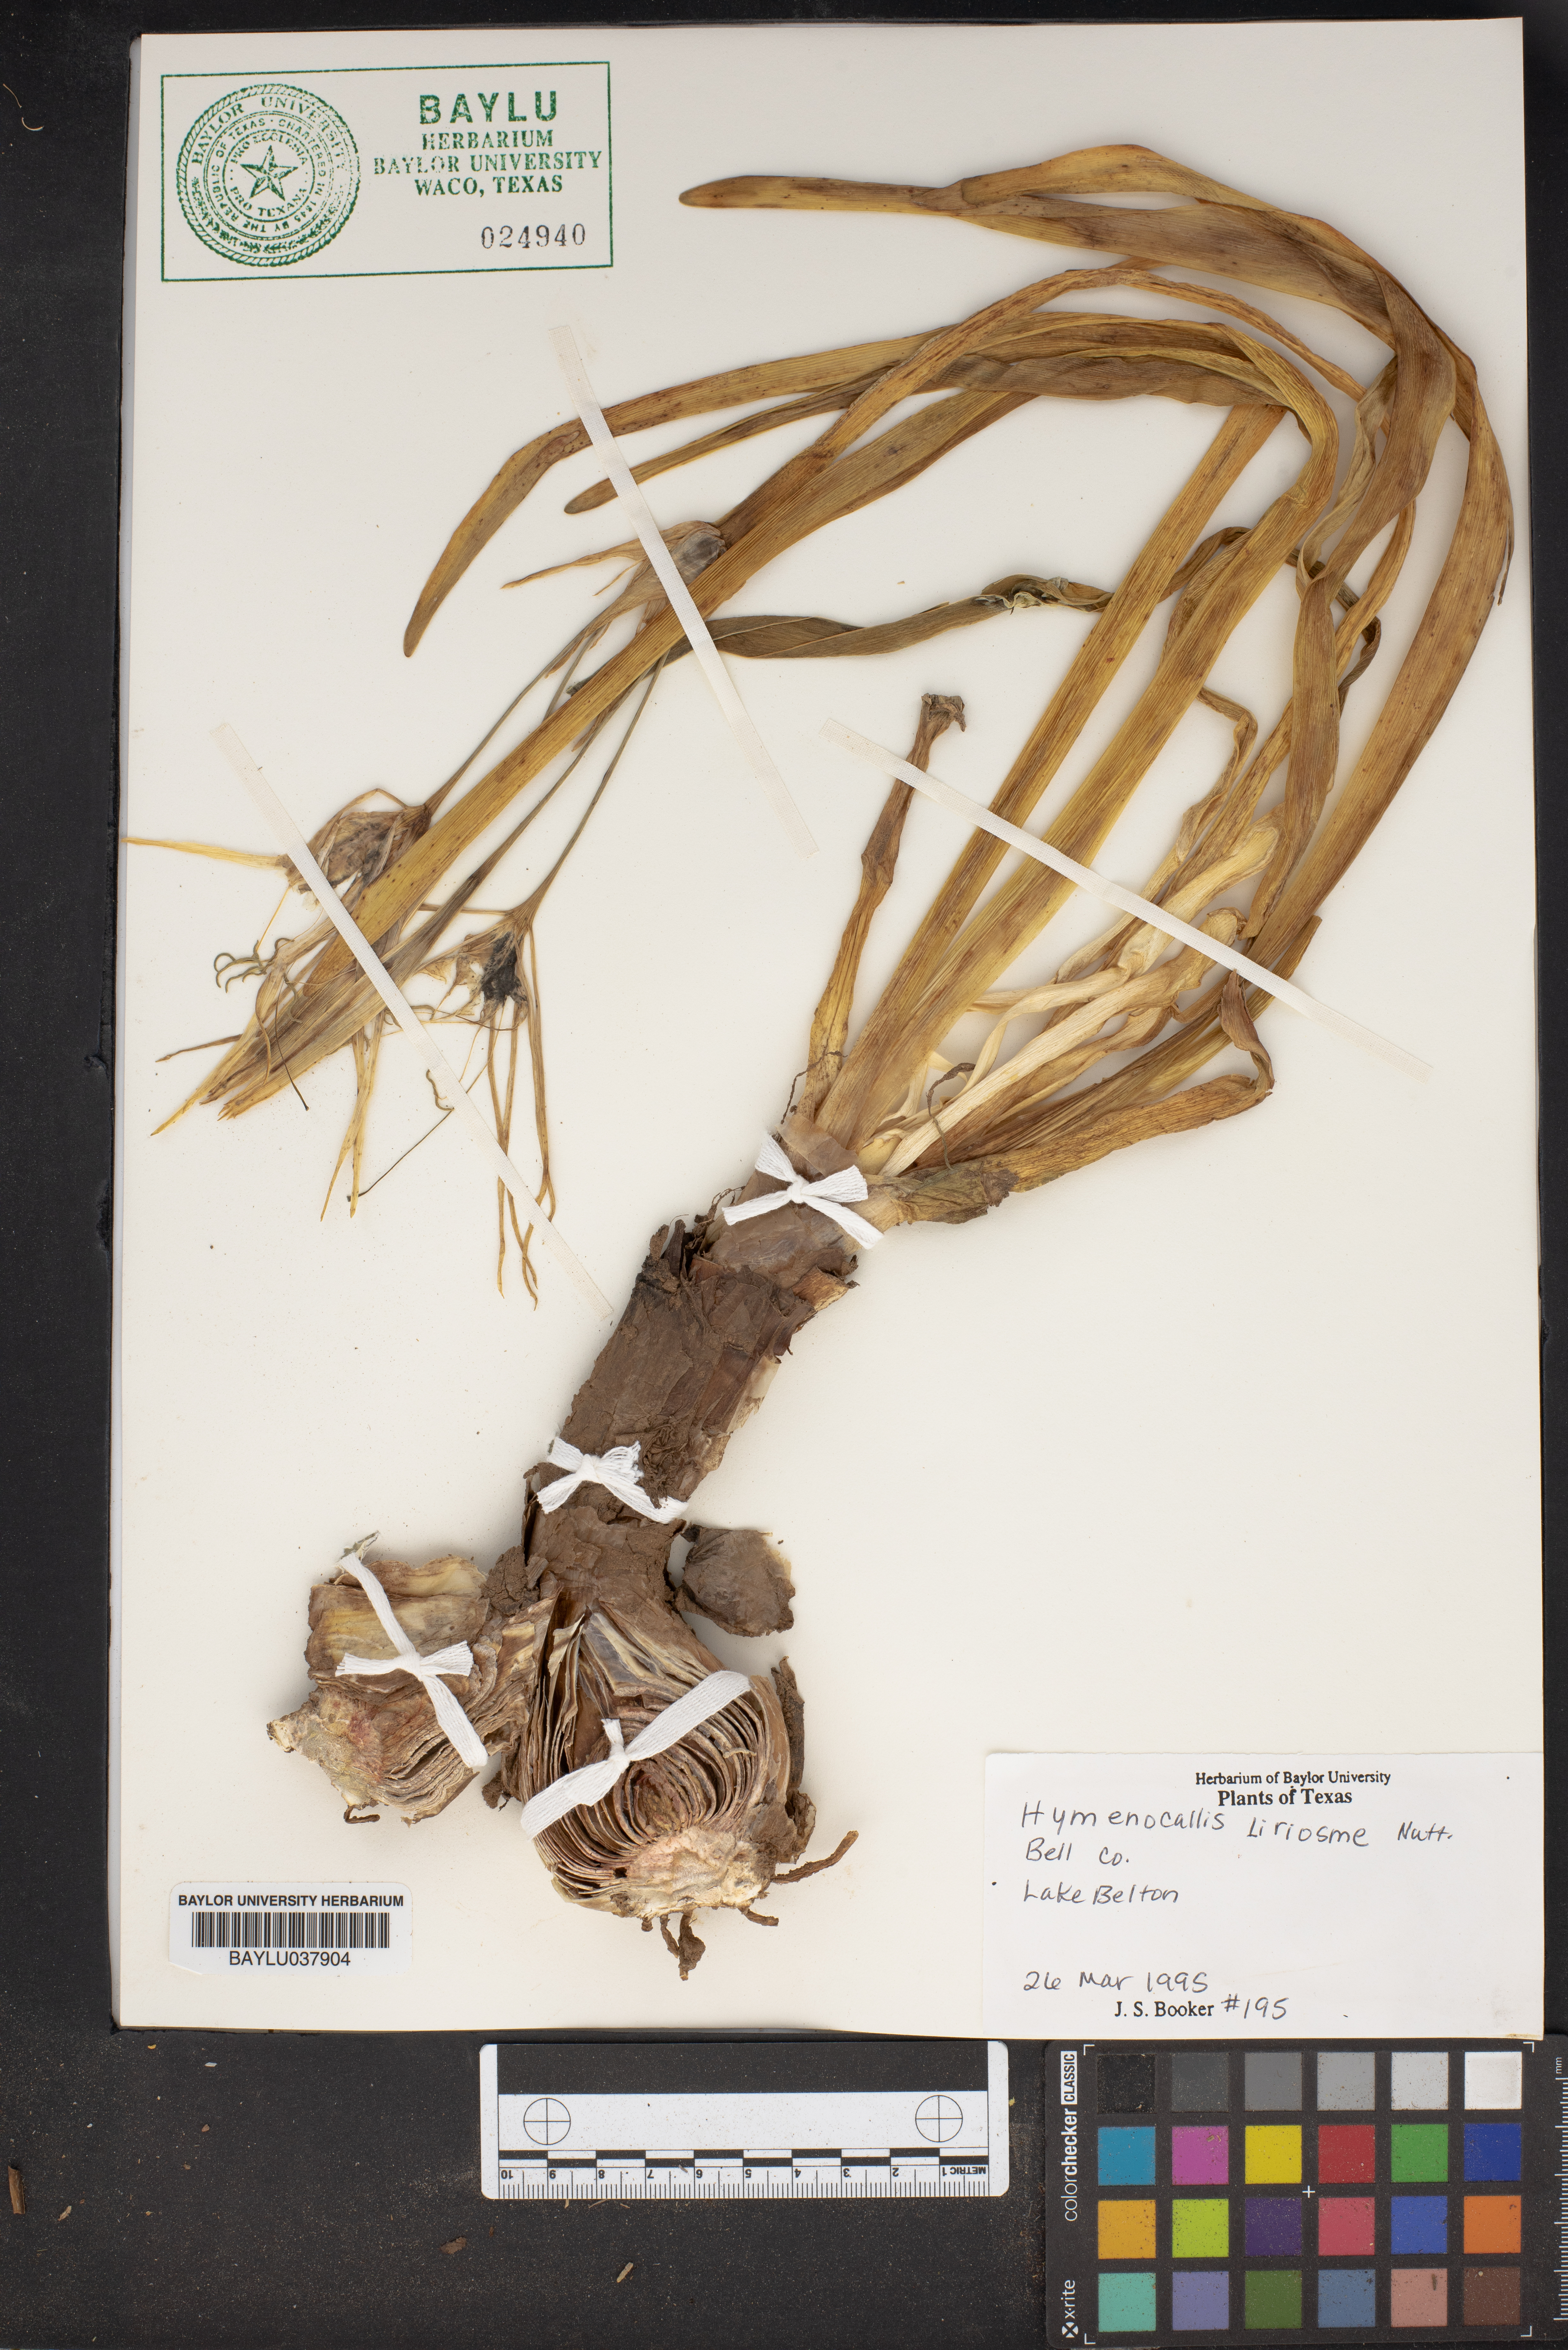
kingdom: Plantae
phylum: Tracheophyta
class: Liliopsida
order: Asparagales
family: Amaryllidaceae
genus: Hymenocallis
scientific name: Hymenocallis liriosme
